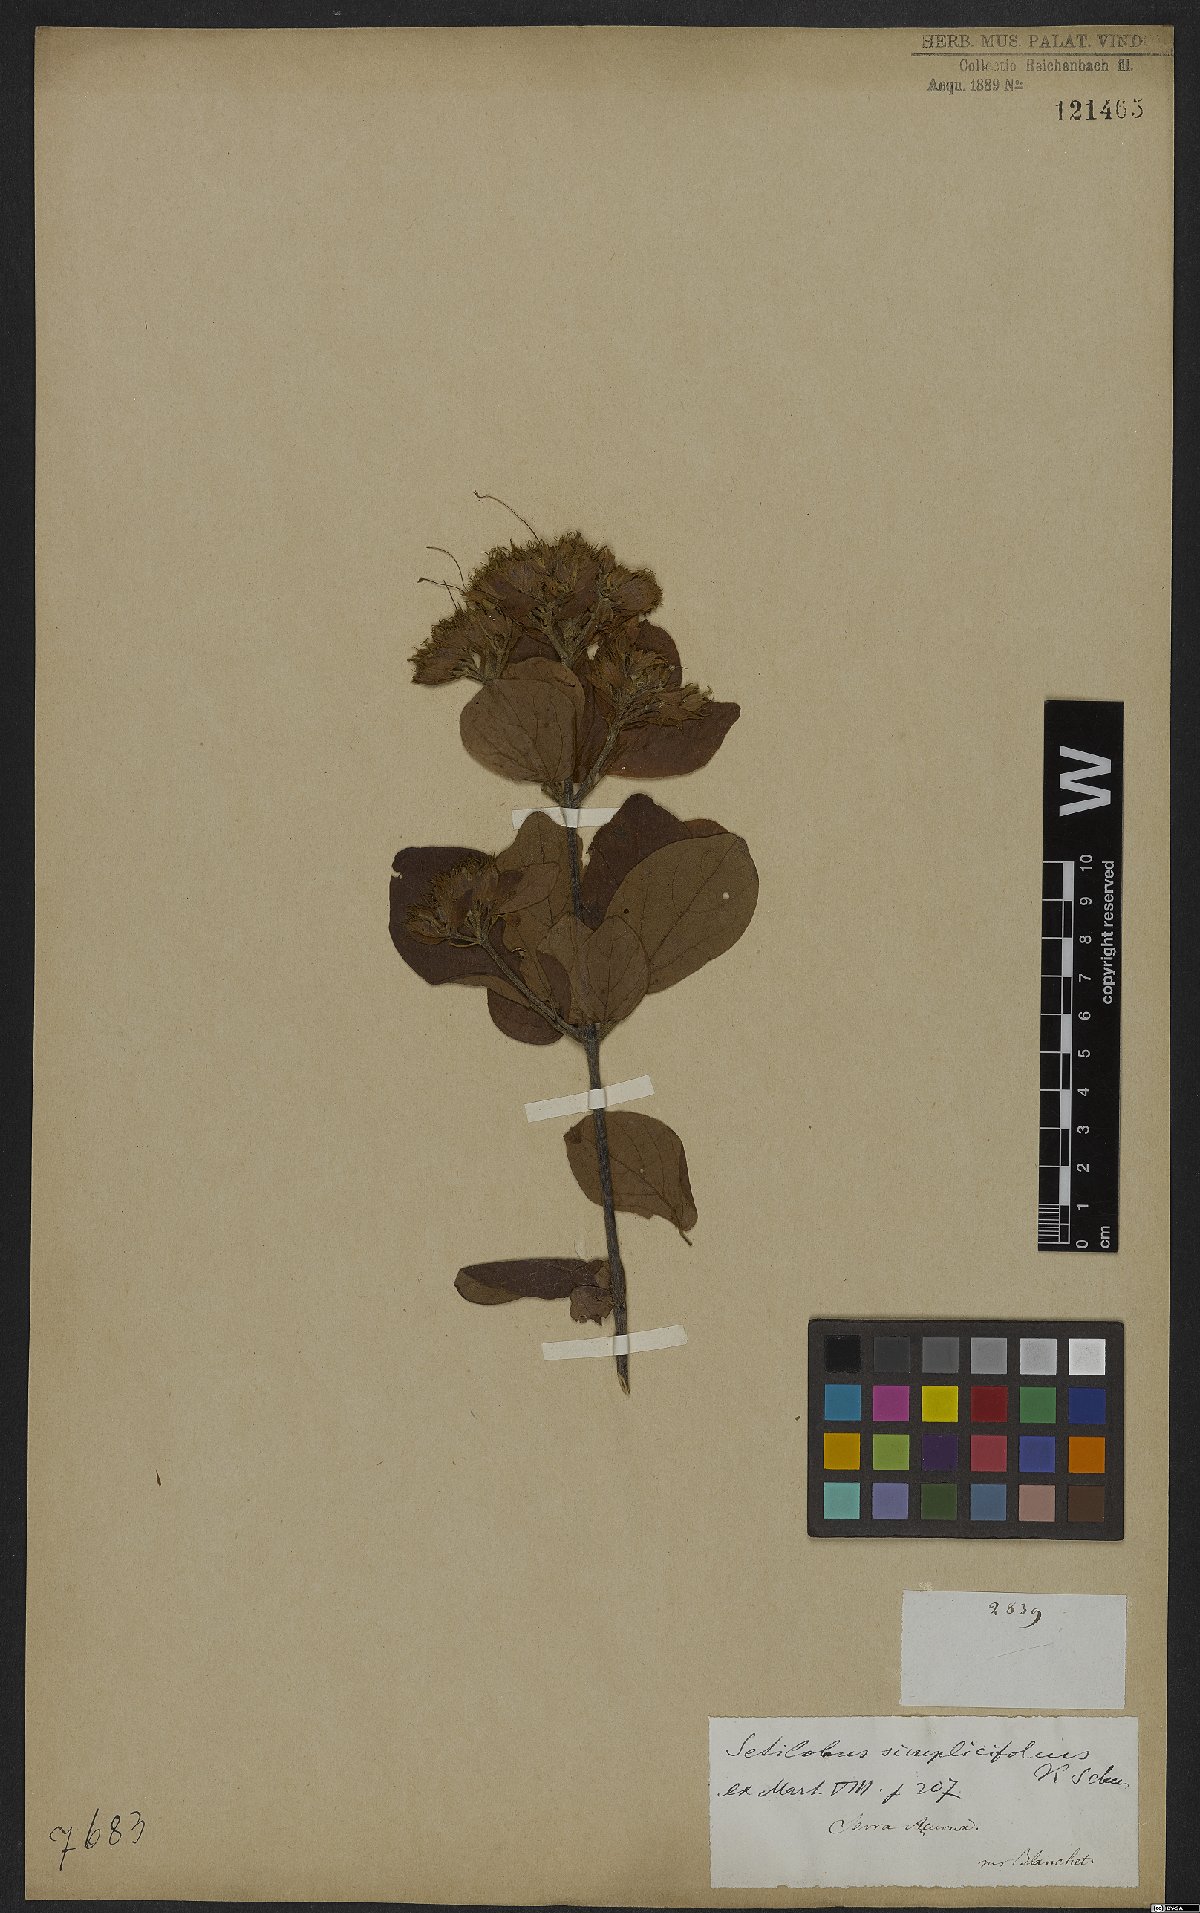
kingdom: Plantae
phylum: Tracheophyta
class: Magnoliopsida
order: Lamiales
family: Bignoniaceae
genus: Cuspidaria
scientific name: Cuspidaria simplicifolia
